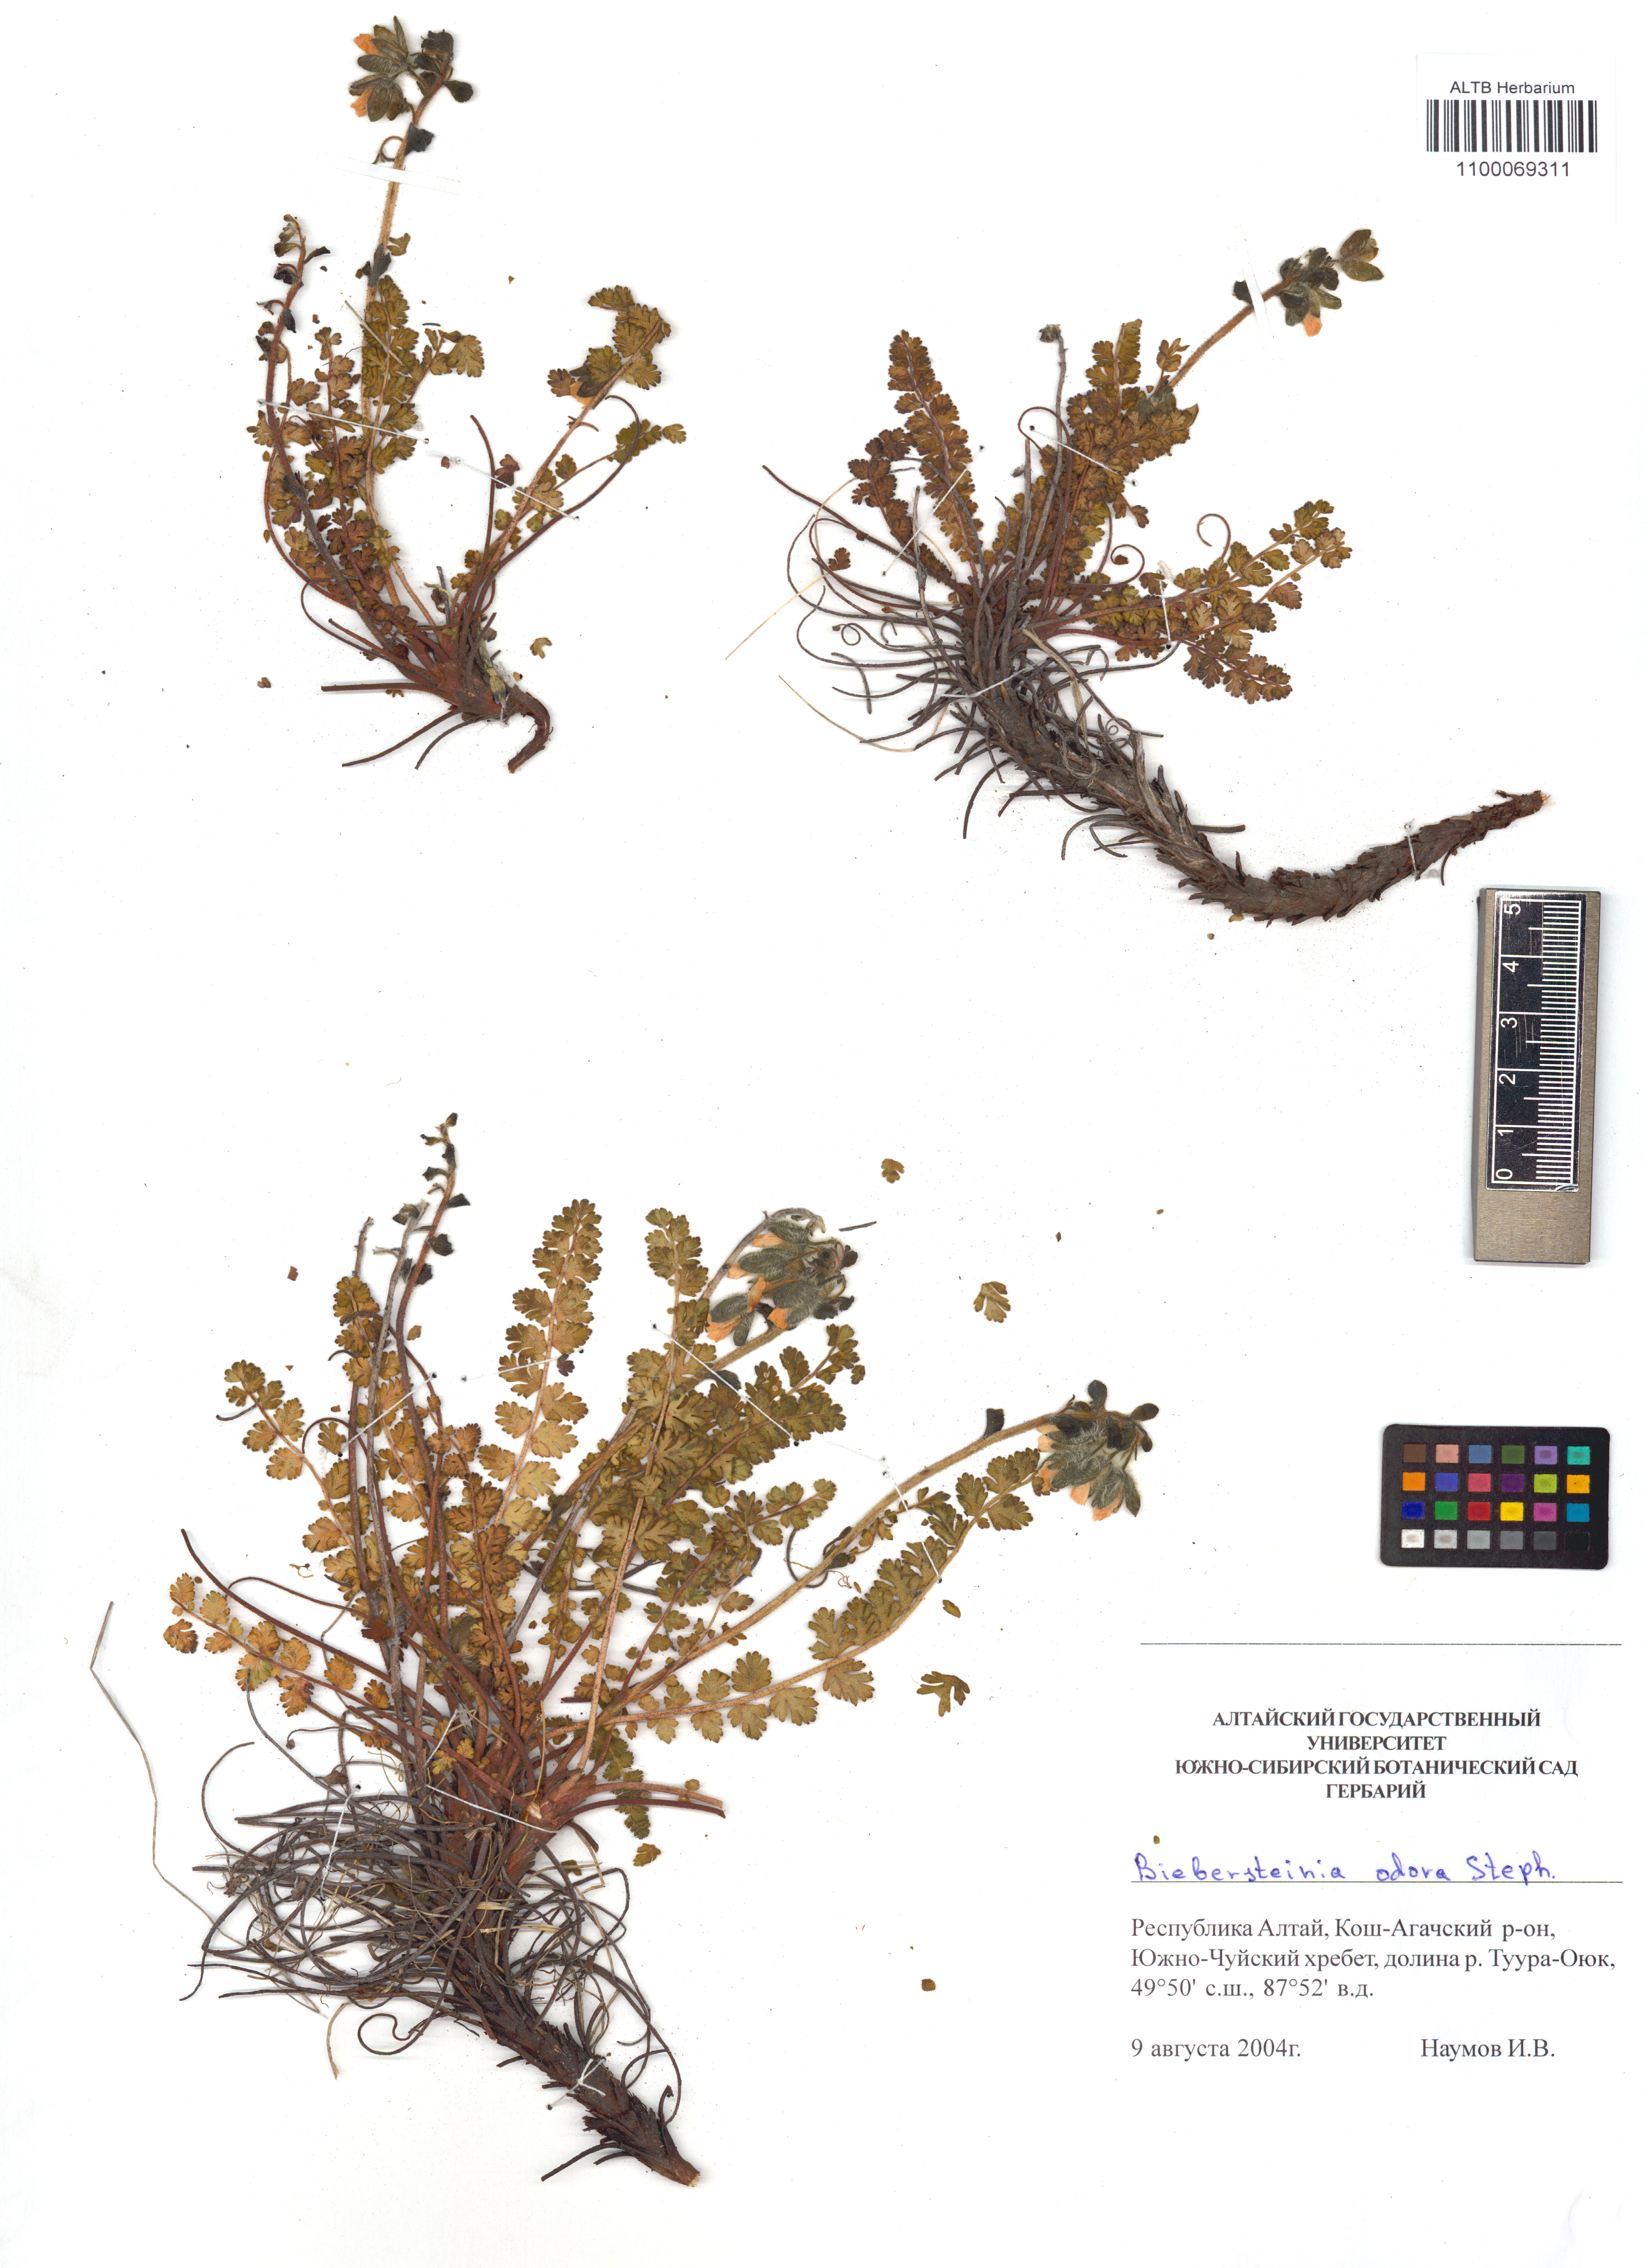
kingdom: Plantae
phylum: Tracheophyta
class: Magnoliopsida
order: Sapindales
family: Biebersteiniaceae
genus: Biebersteinia
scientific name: Biebersteinia odora
